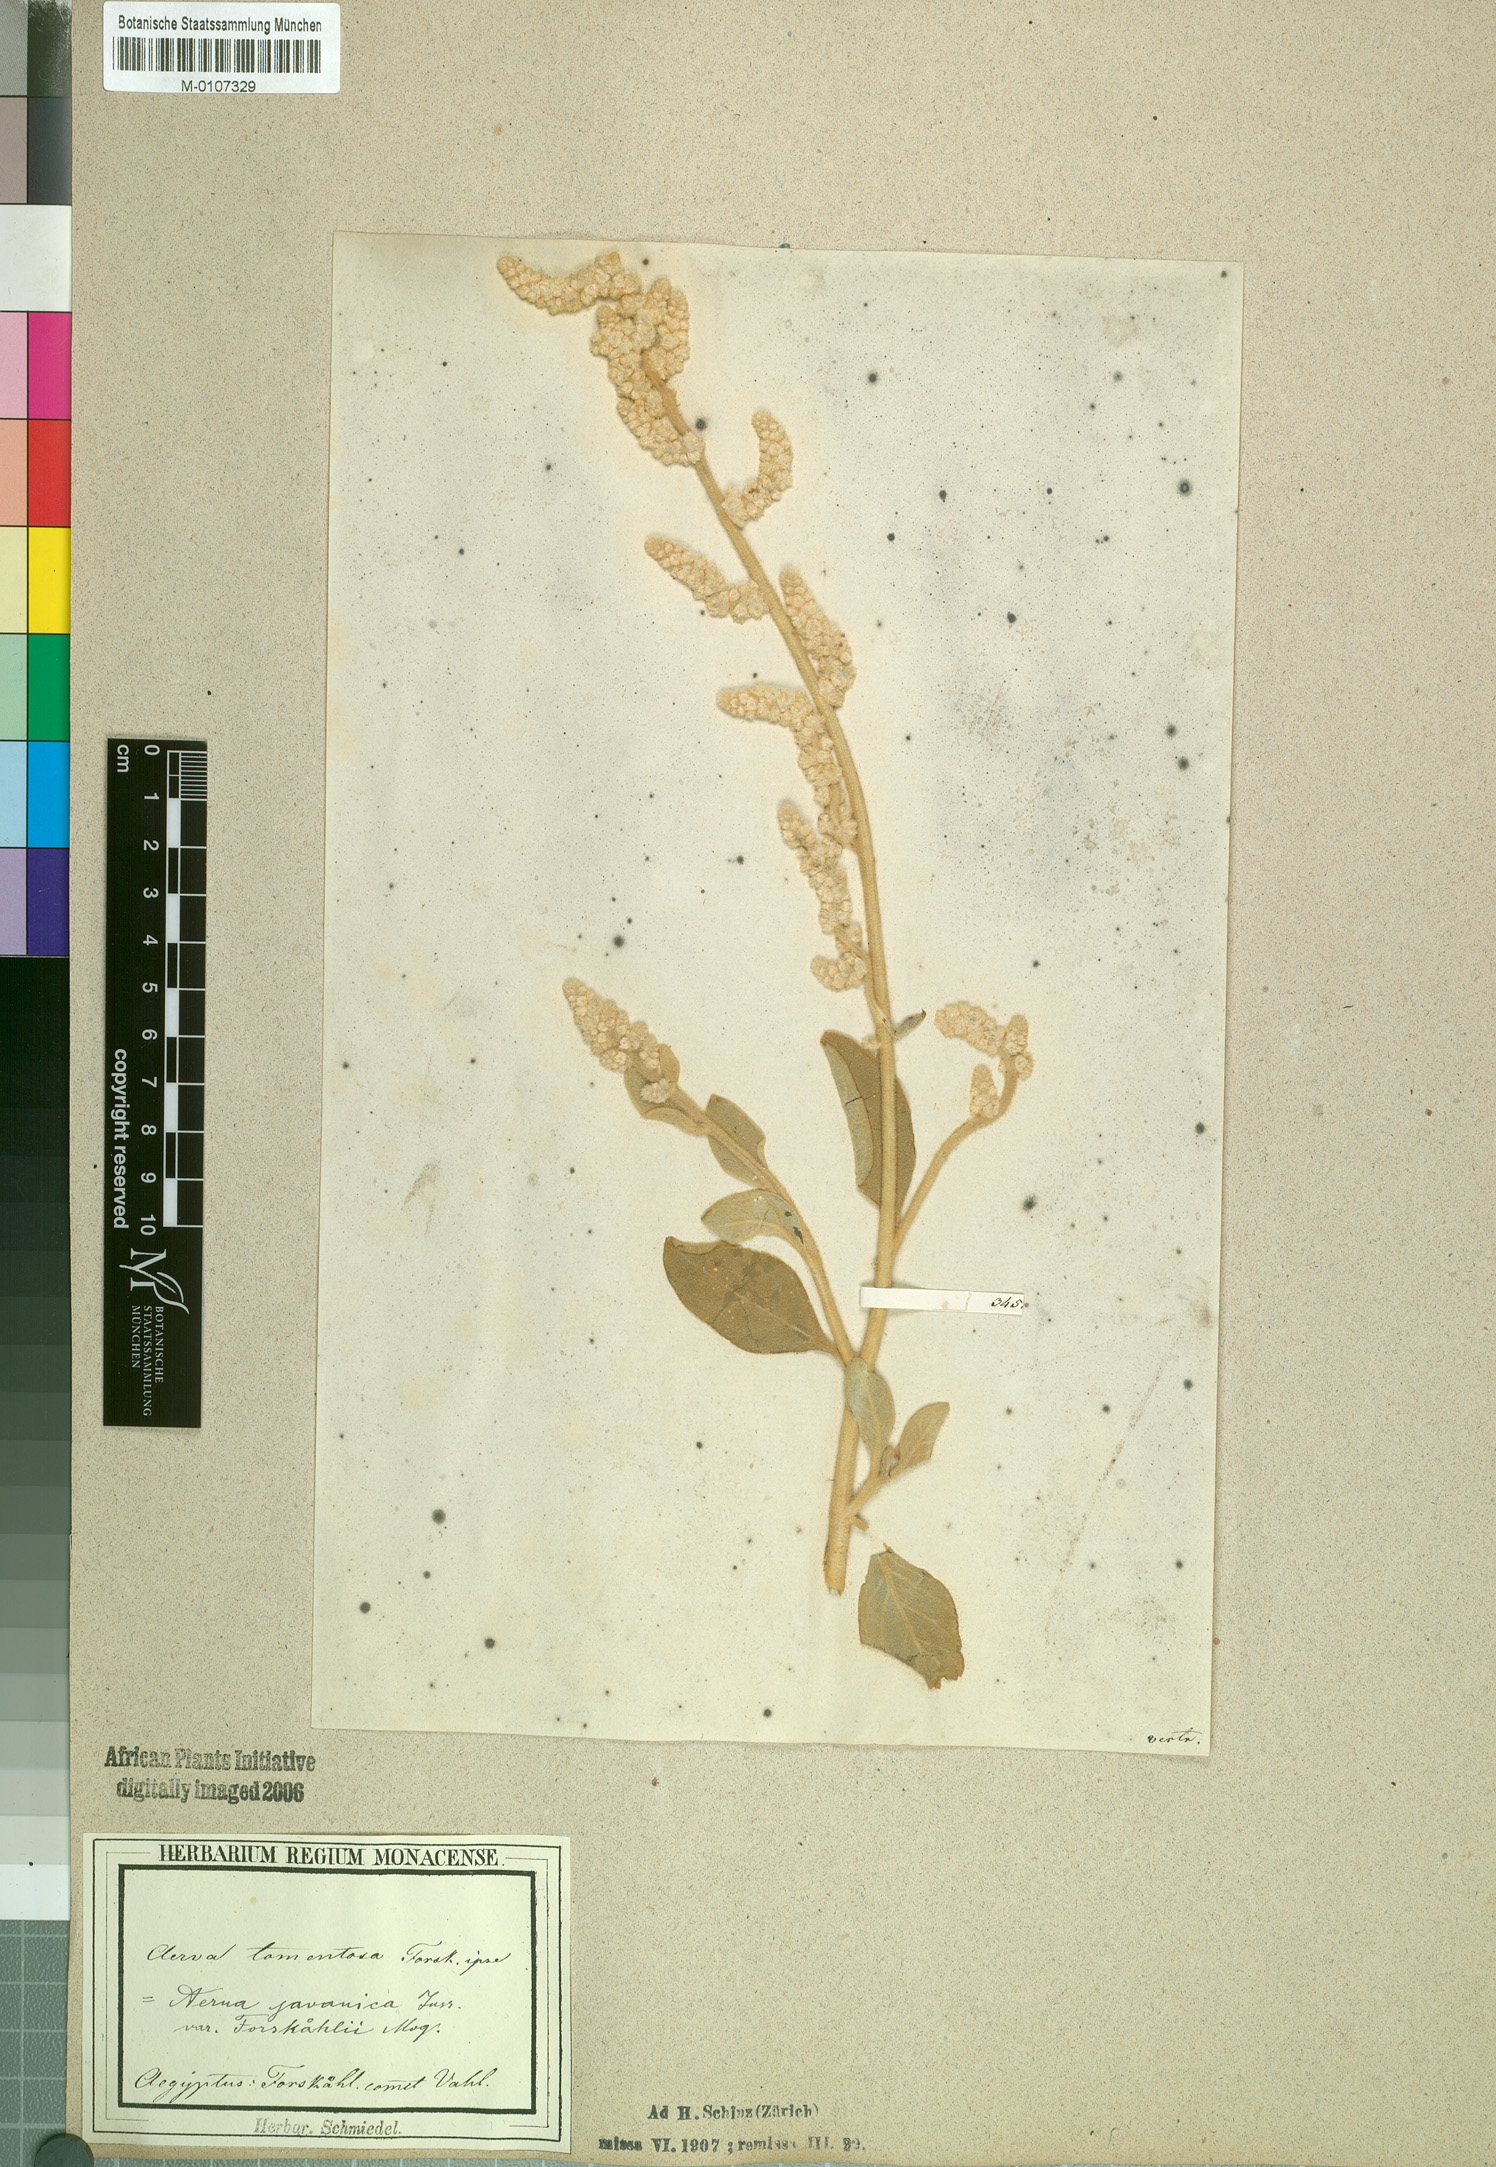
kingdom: Plantae
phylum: Tracheophyta
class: Magnoliopsida
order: Caryophyllales
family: Amaranthaceae
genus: Aerva
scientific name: Aerva javanica
